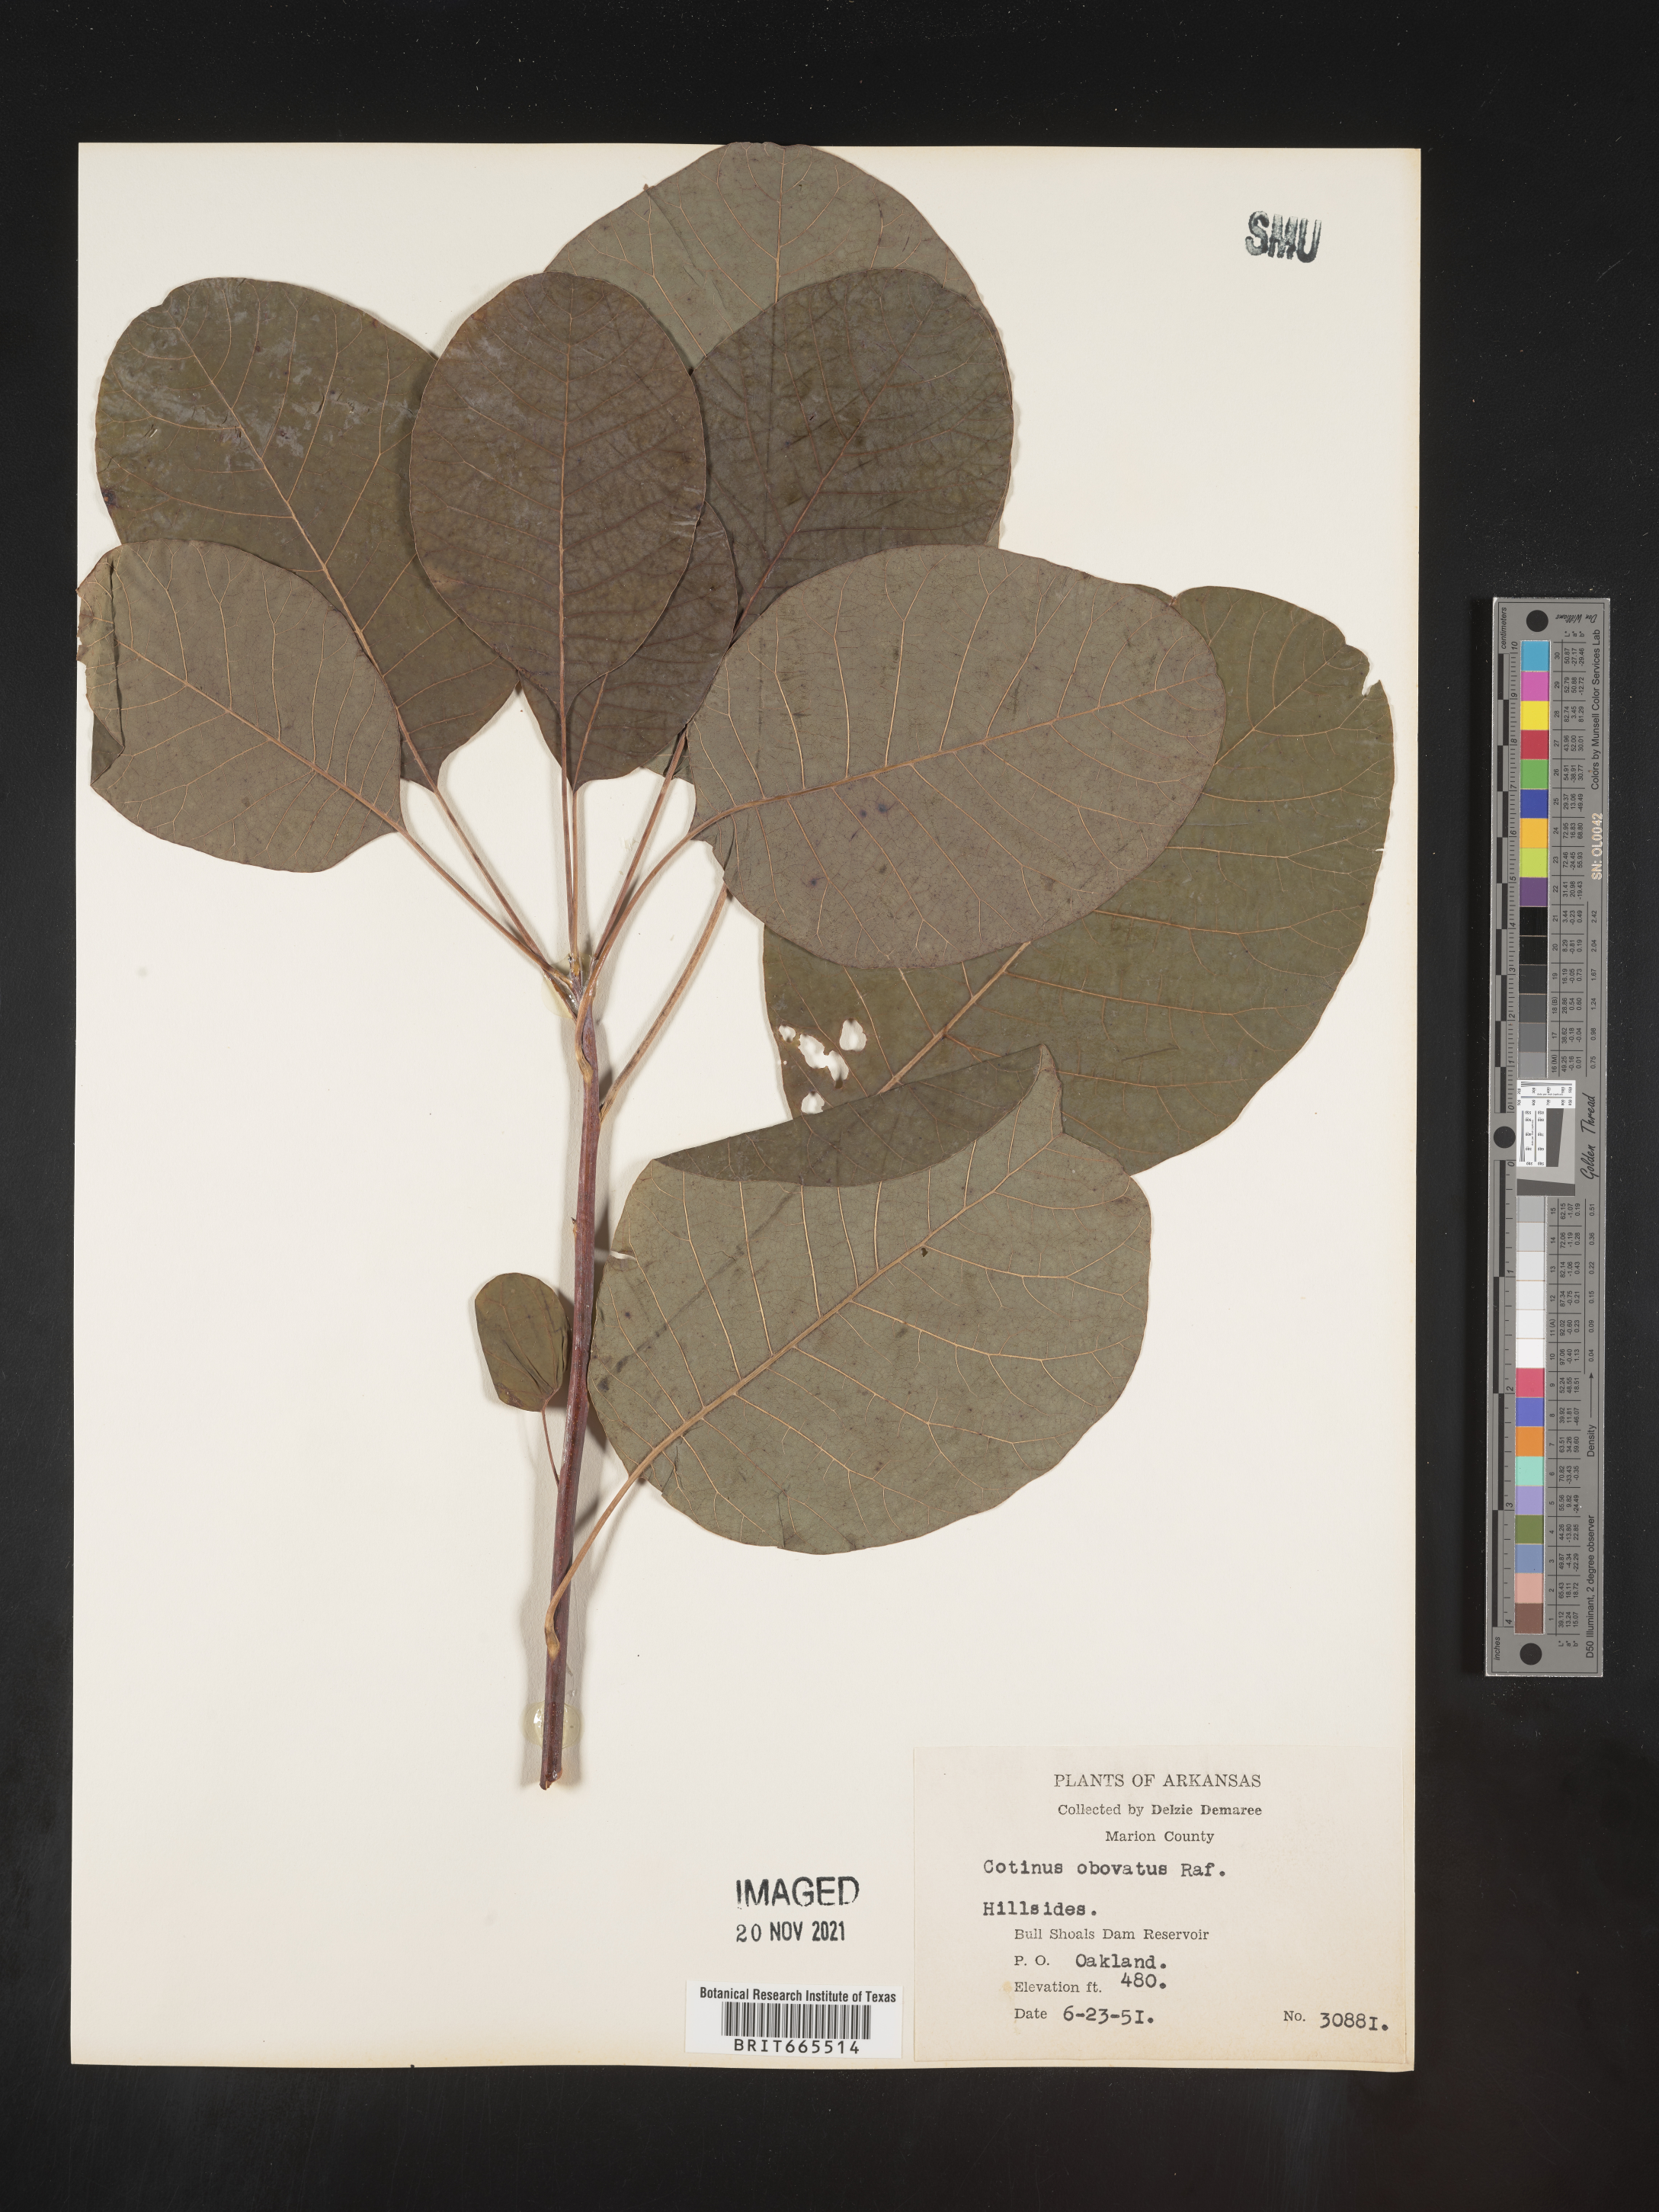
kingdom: Plantae
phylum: Tracheophyta
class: Magnoliopsida
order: Sapindales
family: Anacardiaceae
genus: Cotinus
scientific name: Cotinus obovatus
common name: Chittamwood
